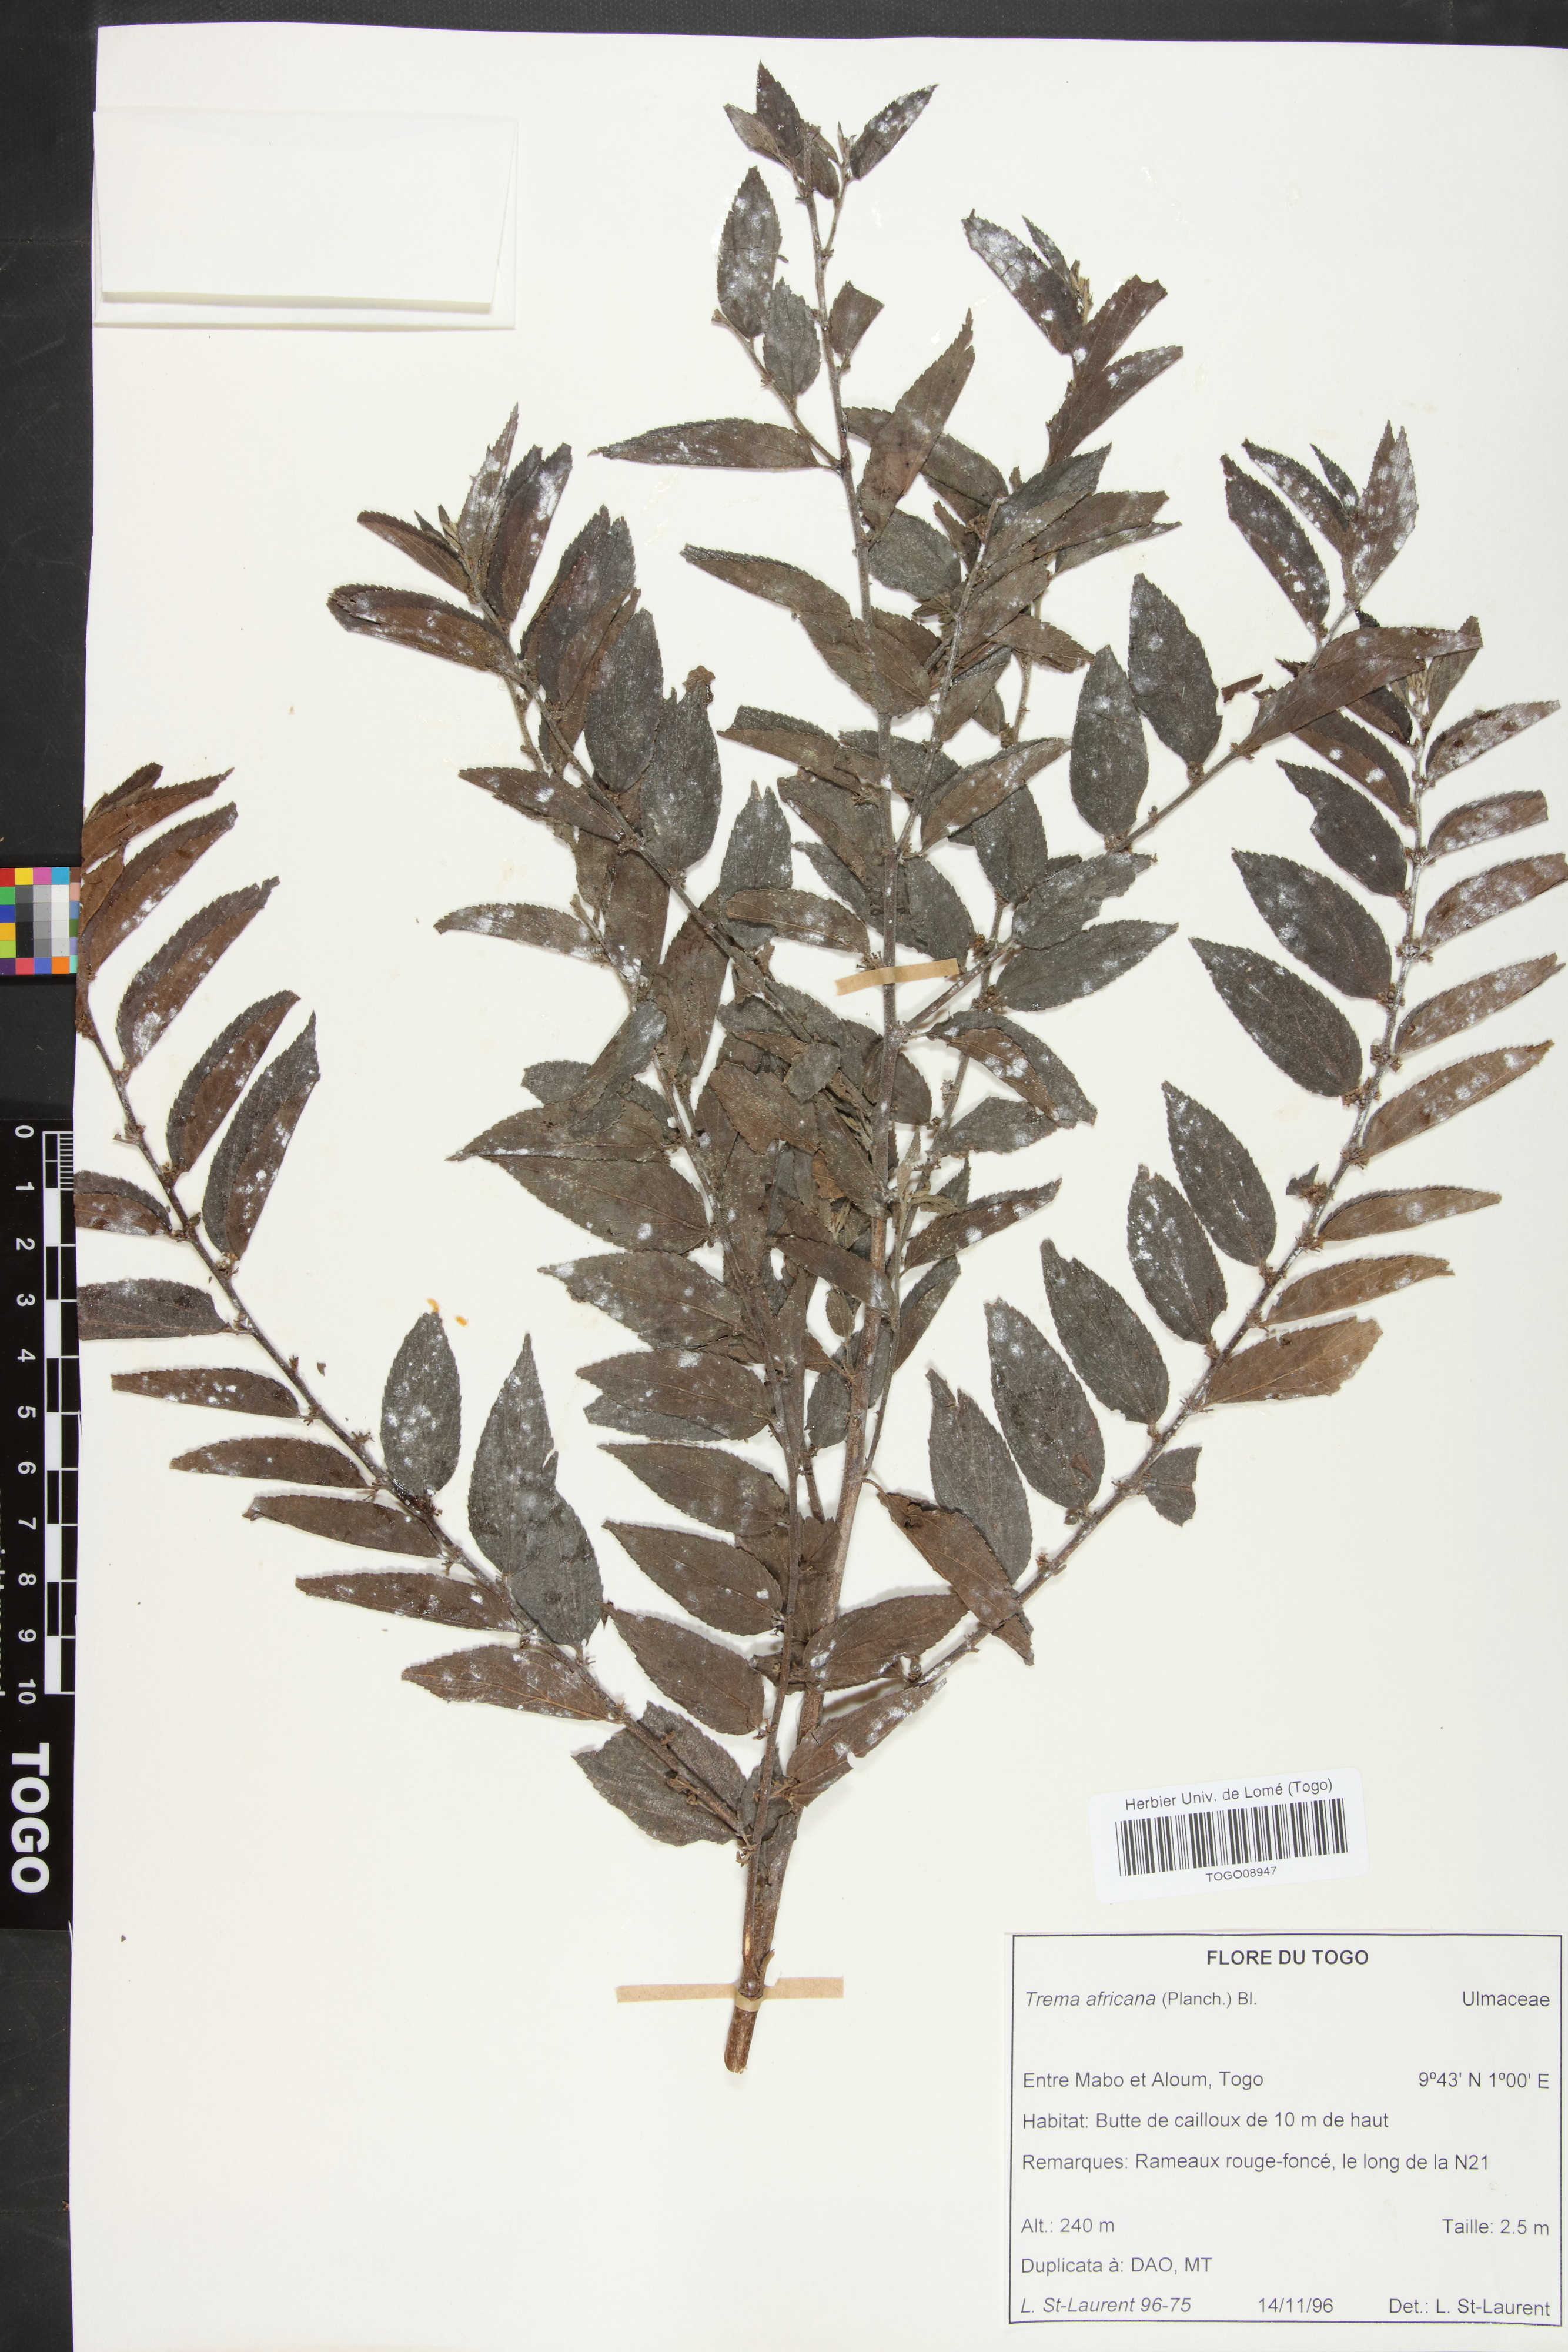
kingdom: Plantae
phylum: Tracheophyta
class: Magnoliopsida
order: Rosales
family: Cannabaceae
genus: Trema
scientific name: Trema orientale
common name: Indian charcoal tree
